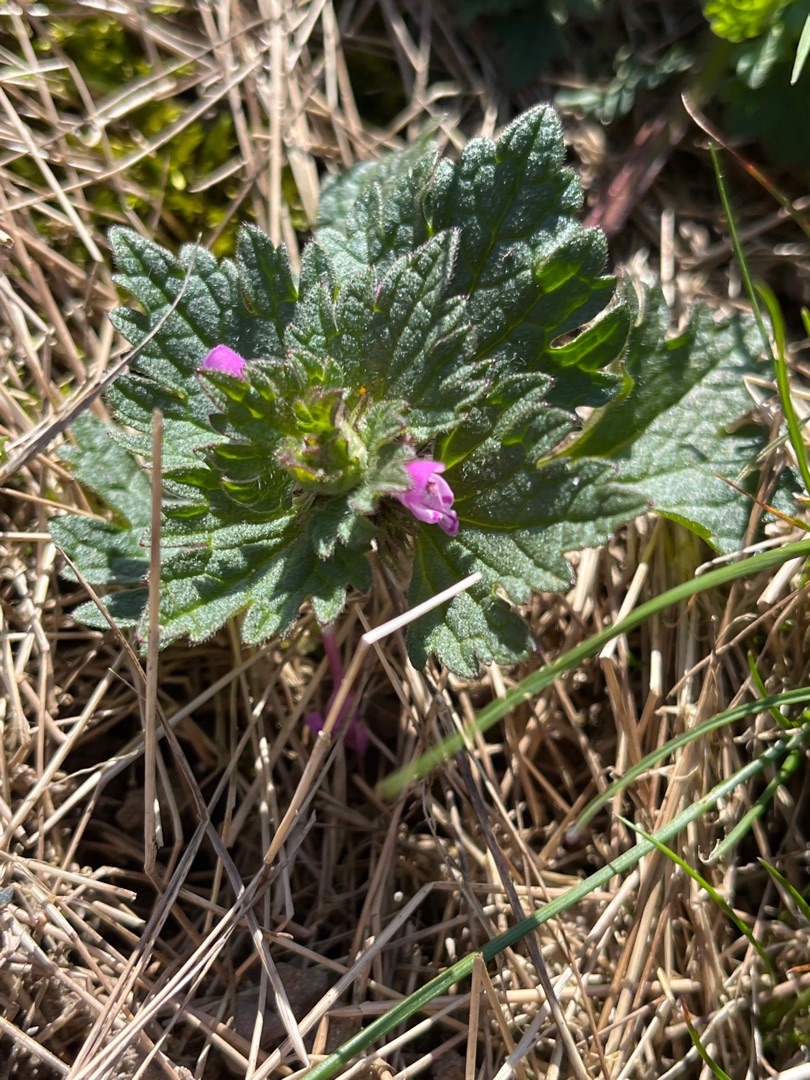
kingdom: Plantae
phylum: Tracheophyta
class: Magnoliopsida
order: Lamiales
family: Lamiaceae
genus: Lamium
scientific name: Lamium hybridum
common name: Fliget tvetand
